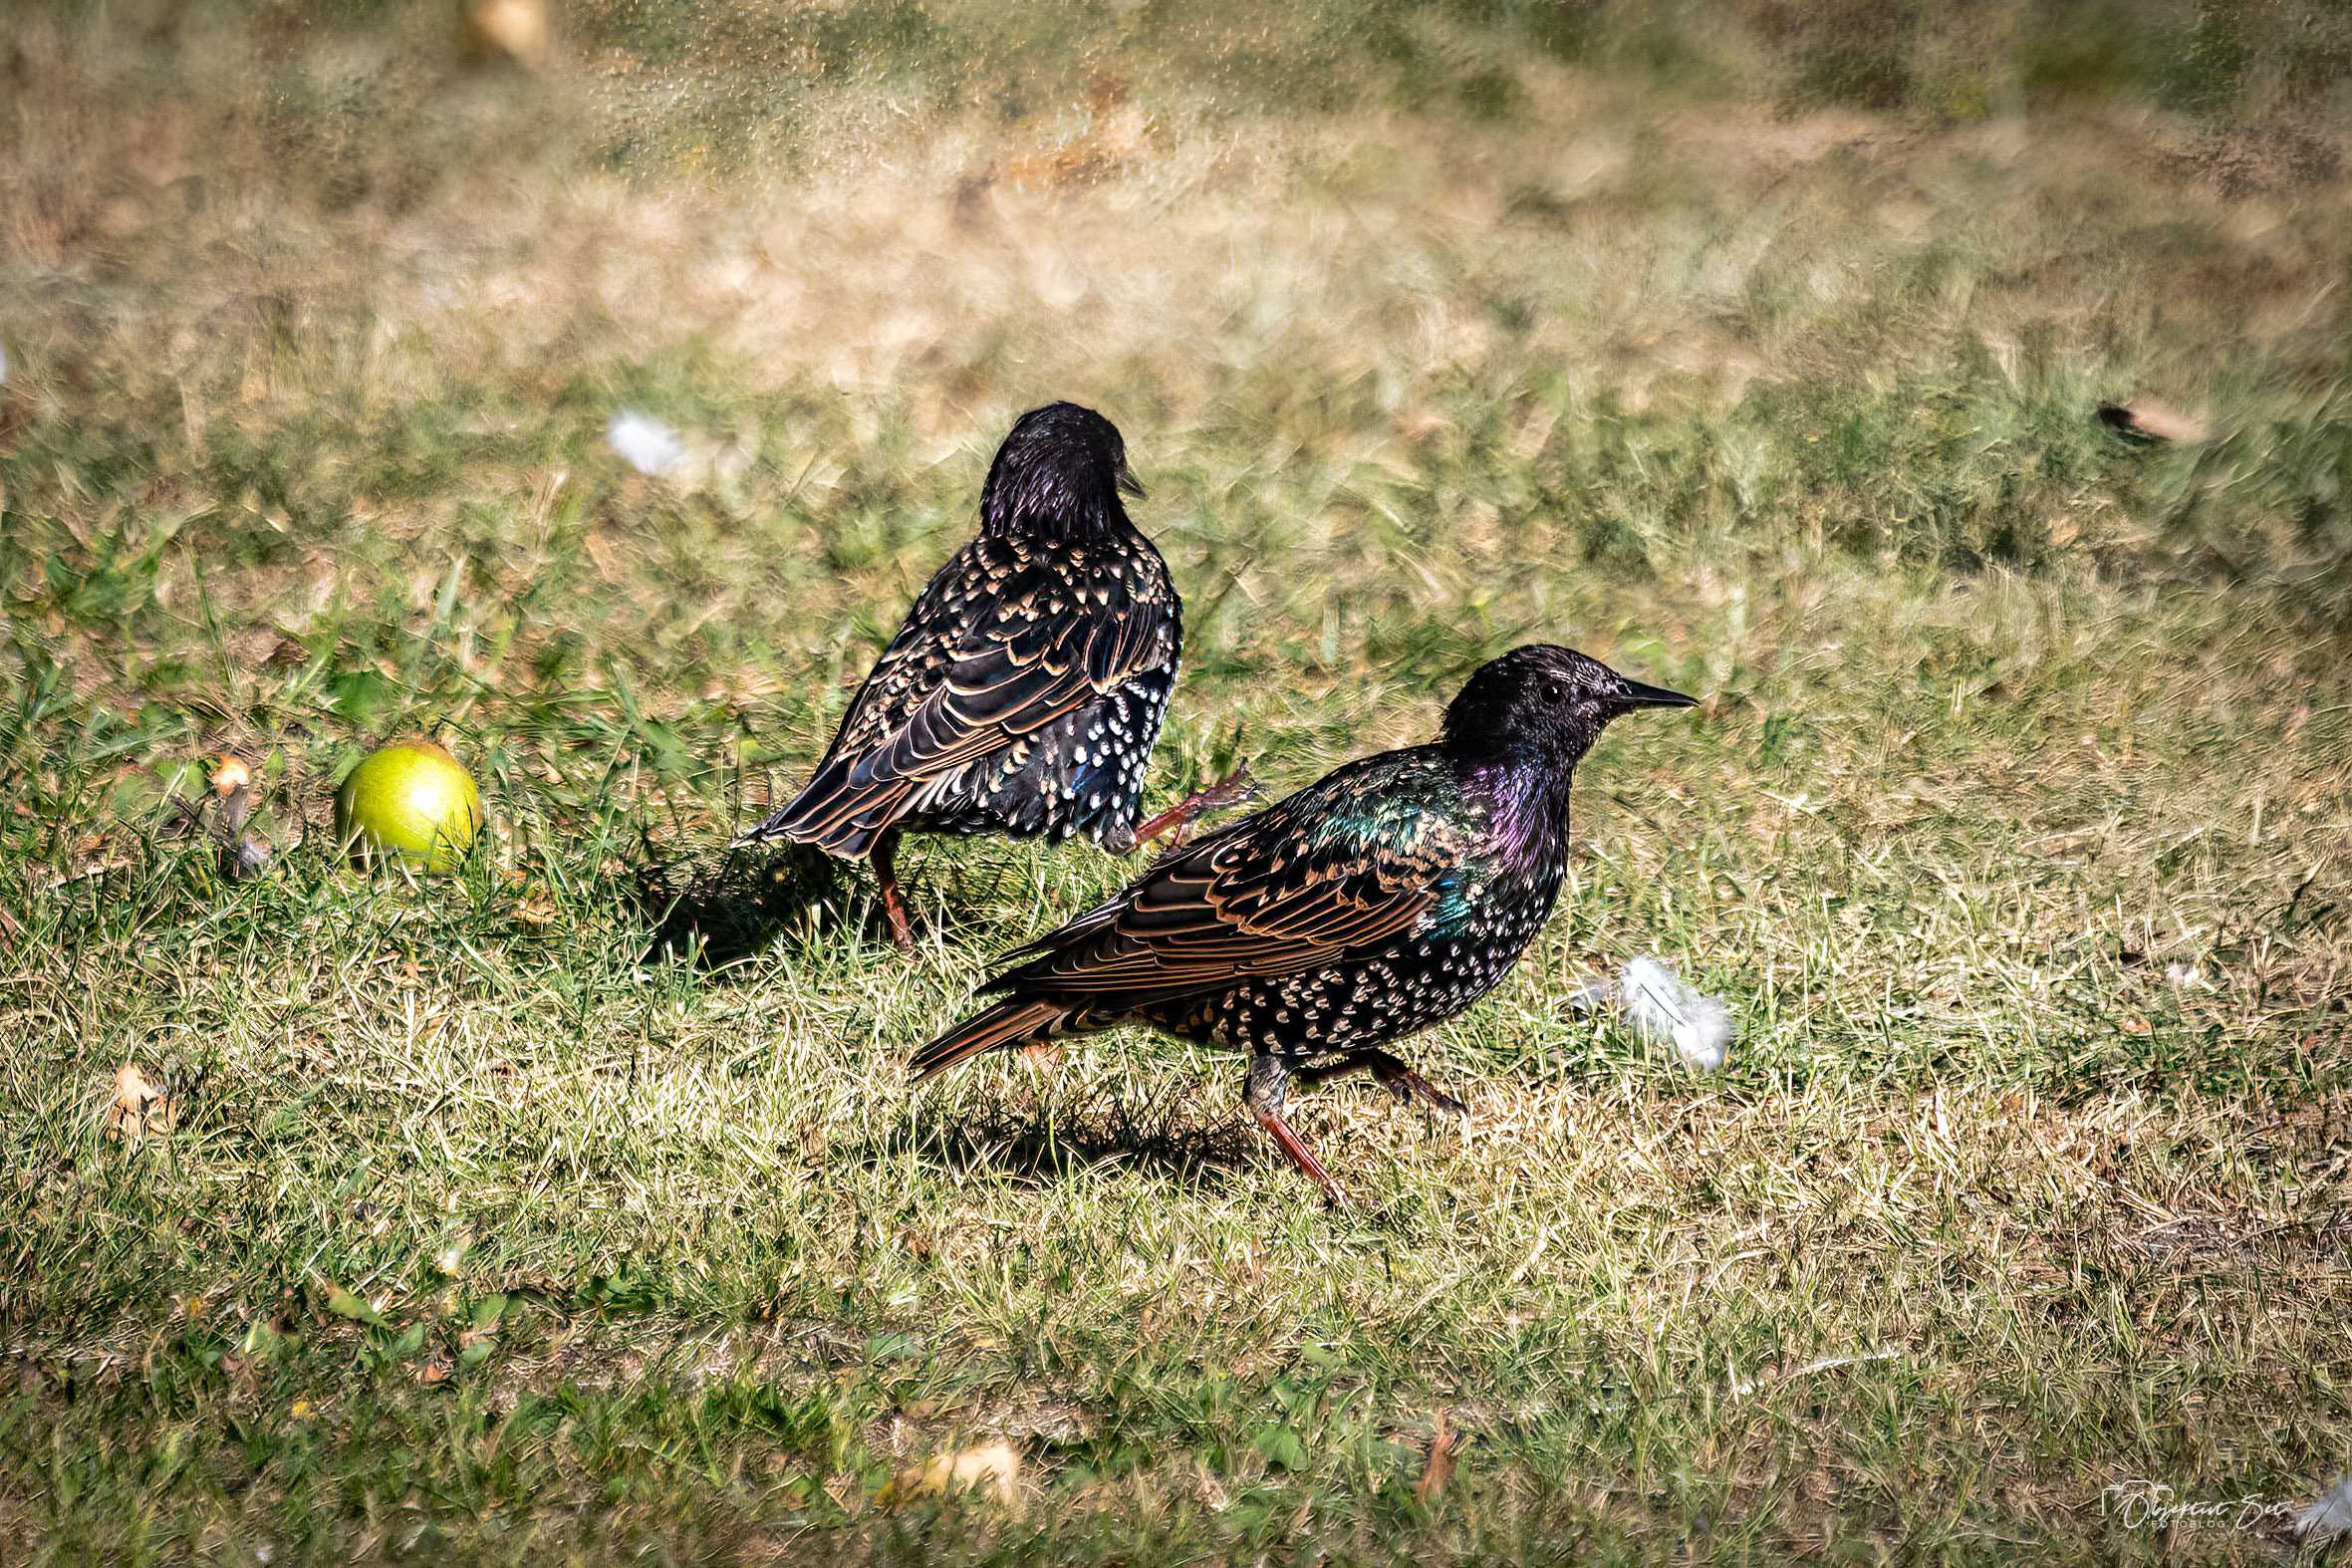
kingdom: Animalia
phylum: Chordata
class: Aves
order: Passeriformes
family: Sturnidae
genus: Sturnus
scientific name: Sturnus vulgaris
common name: Stær
